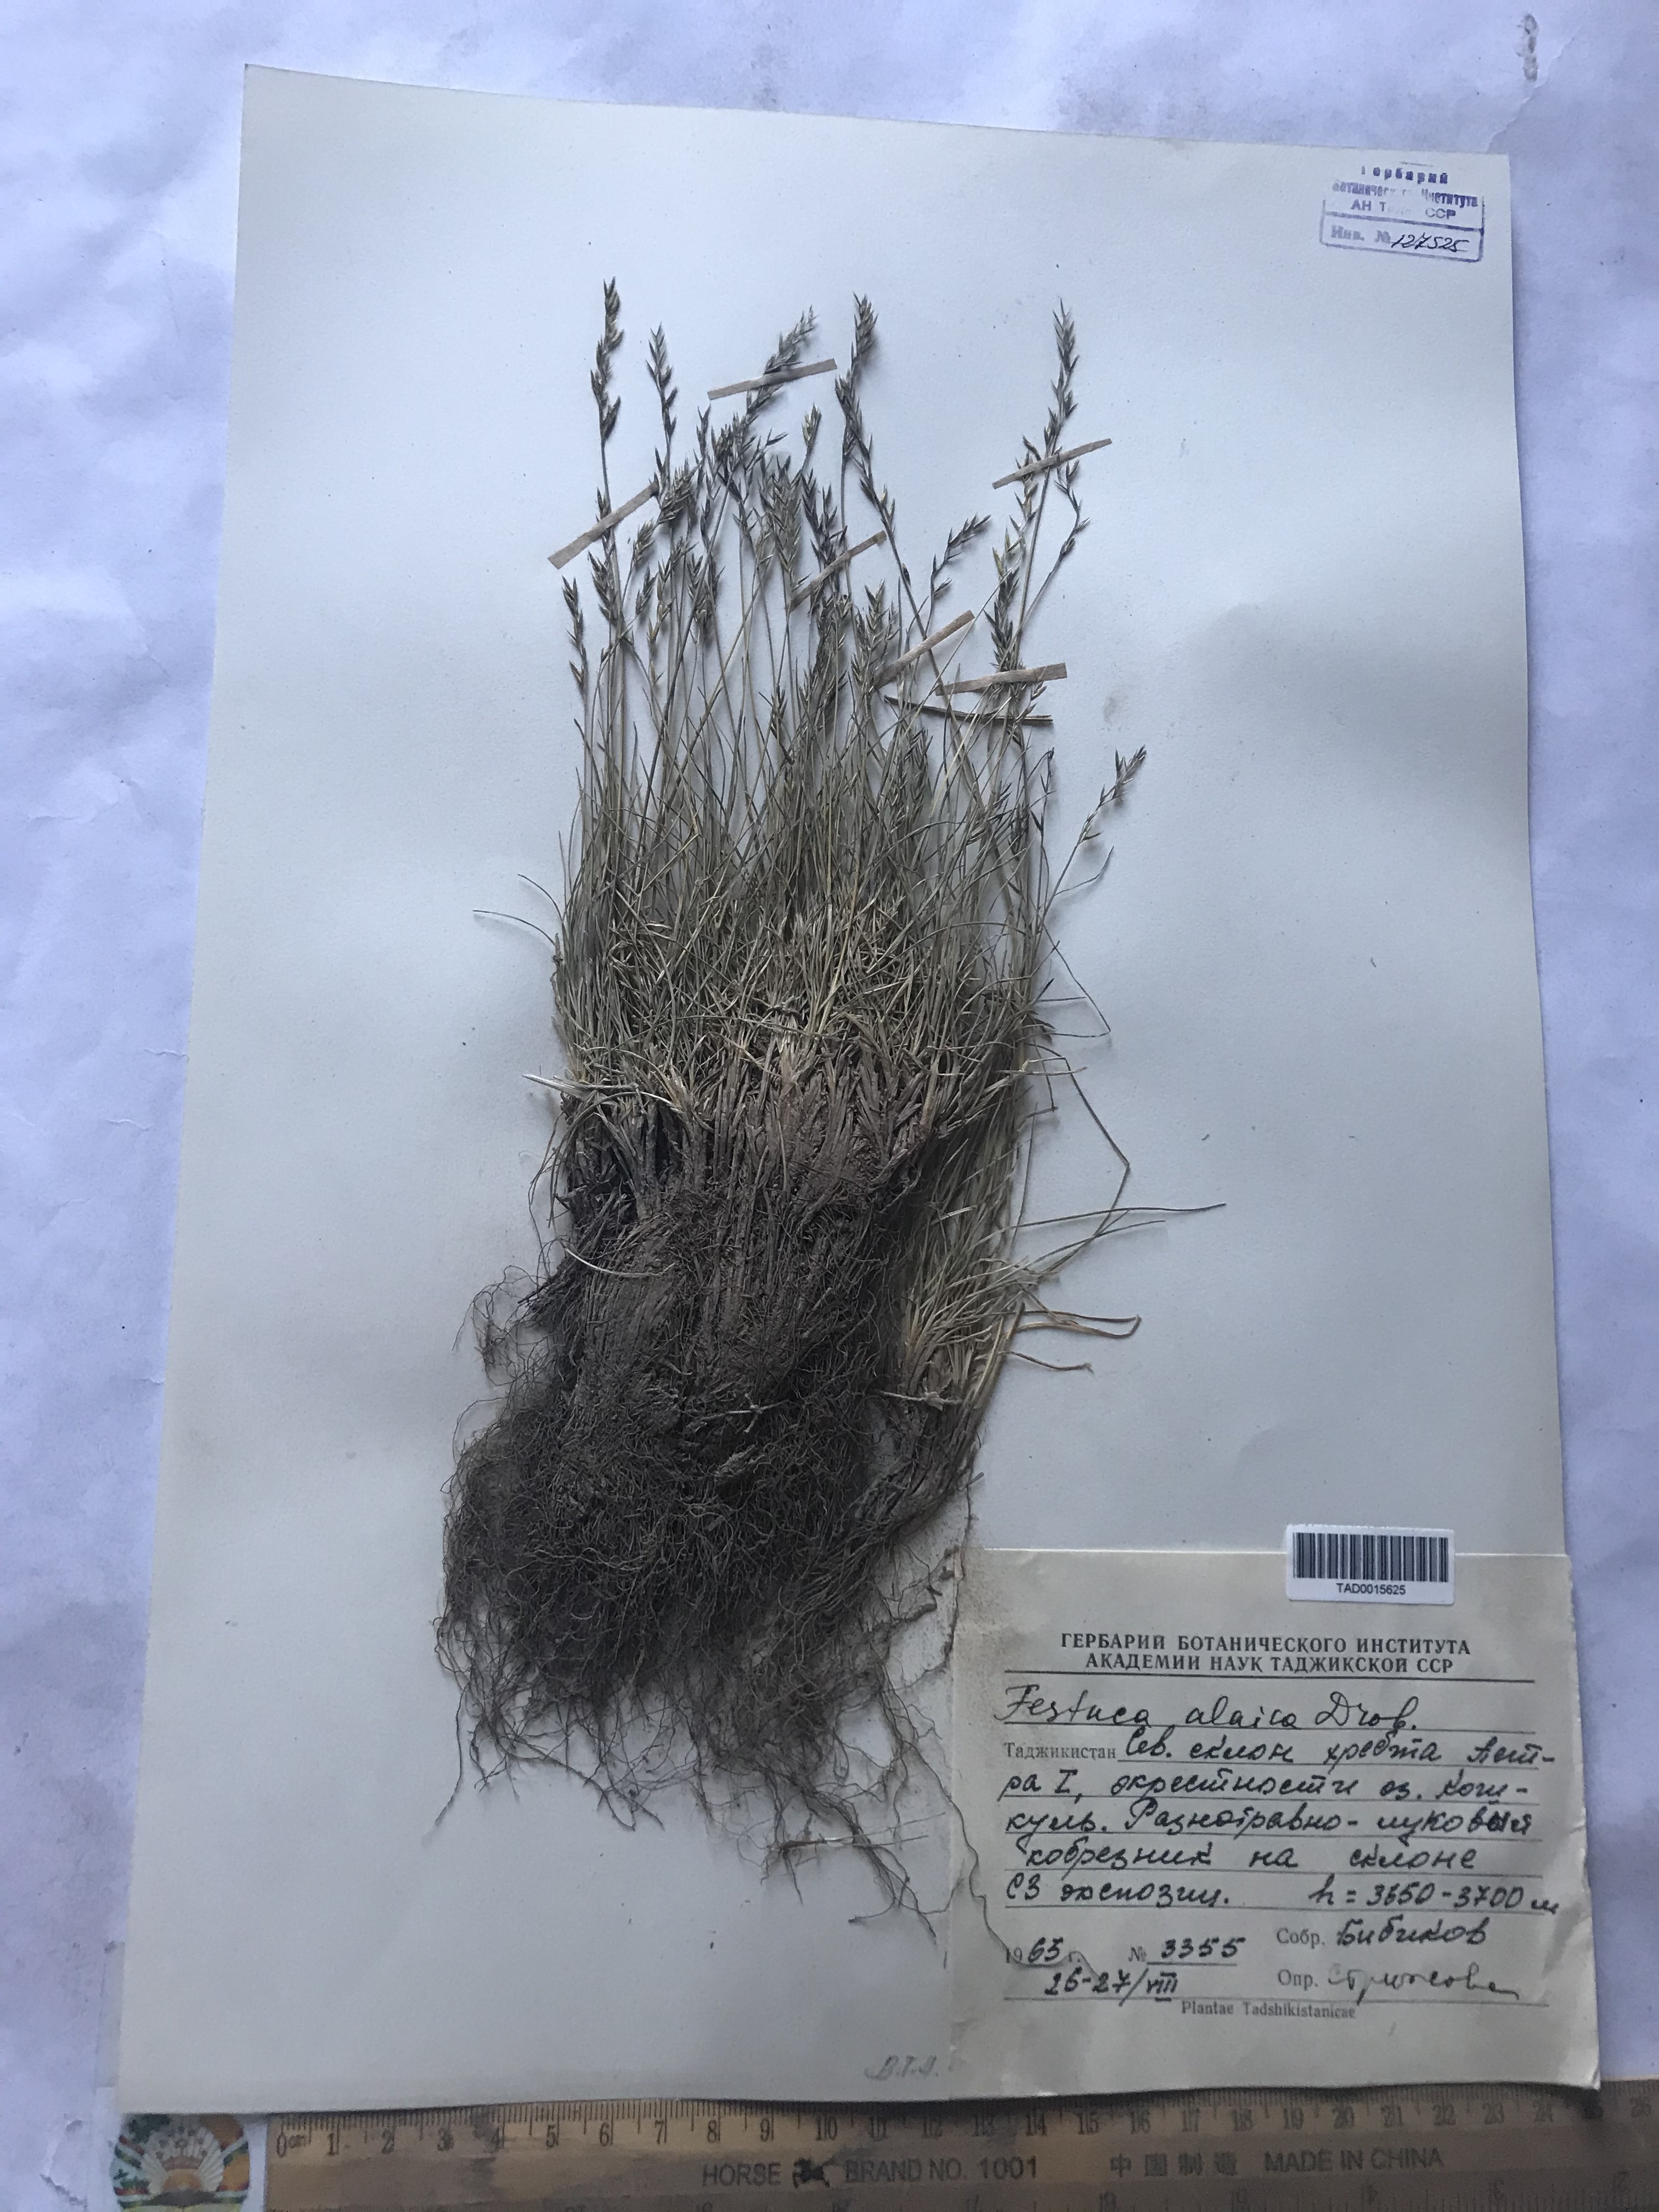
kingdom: Plantae
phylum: Tracheophyta
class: Liliopsida
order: Poales
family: Poaceae
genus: Festuca
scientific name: Festuca alaica
